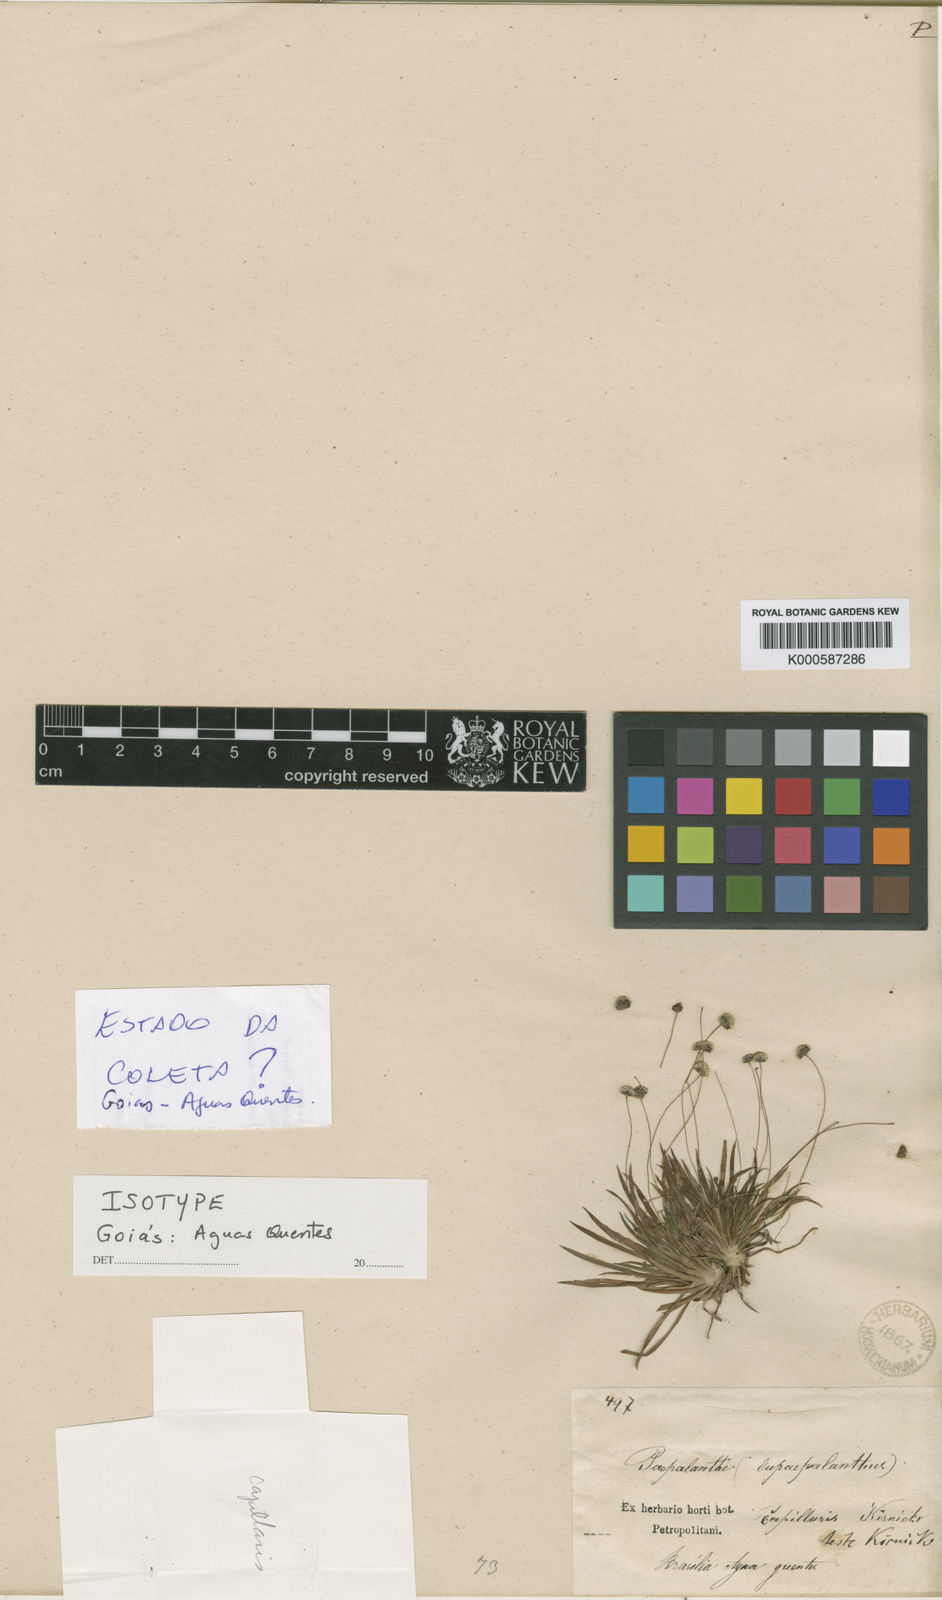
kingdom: Plantae
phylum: Tracheophyta
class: Liliopsida
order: Poales
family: Eriocaulaceae
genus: Paepalanthus
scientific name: Paepalanthus
